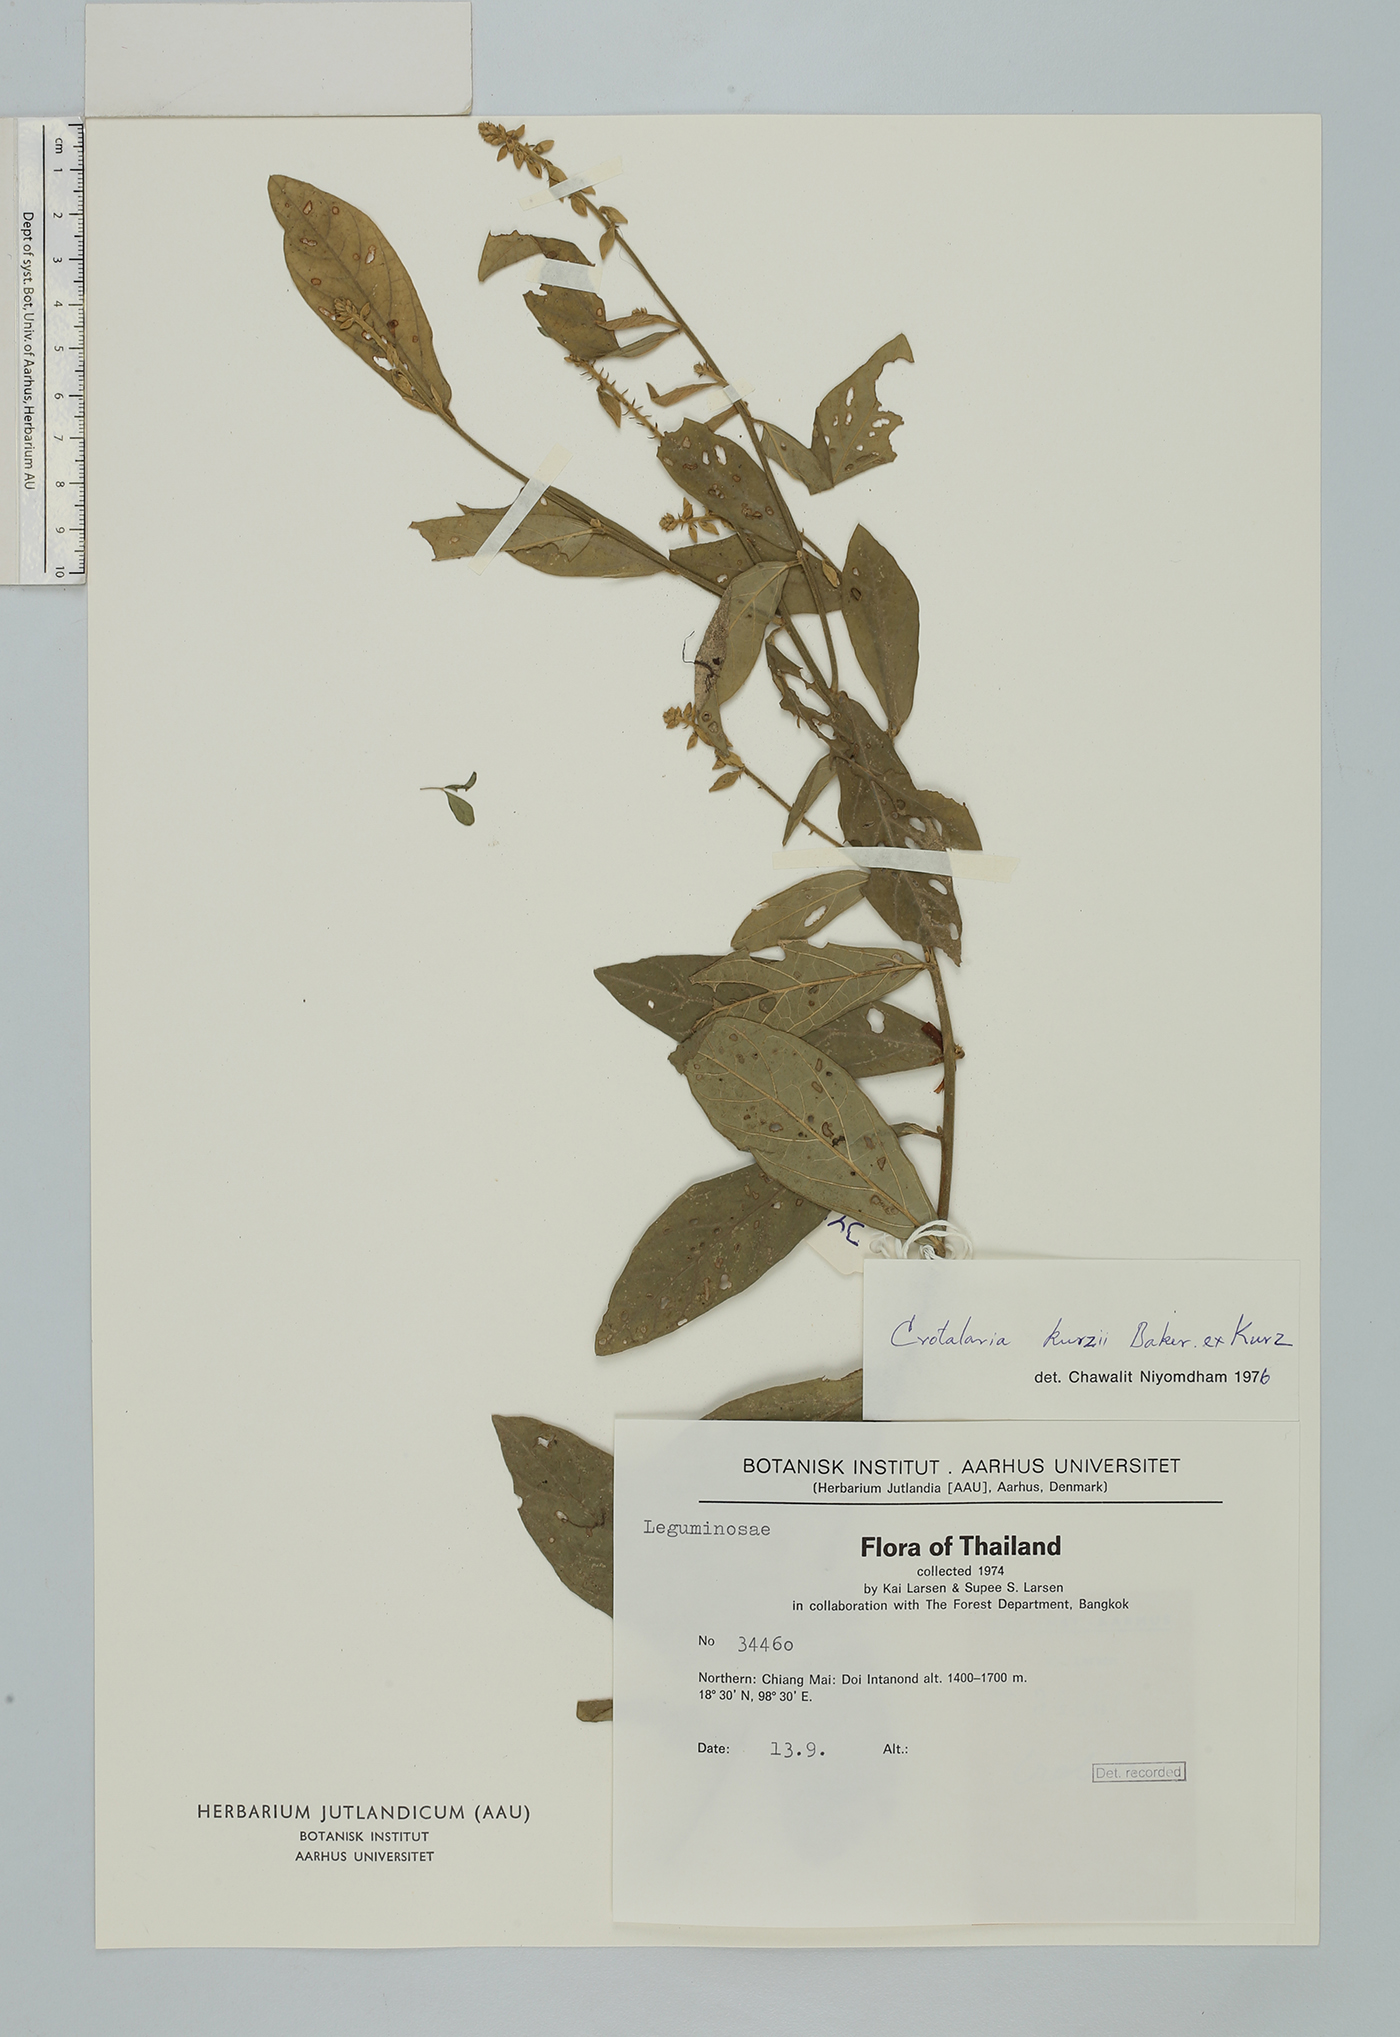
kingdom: Plantae
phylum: Tracheophyta
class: Magnoliopsida
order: Fabales
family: Fabaceae
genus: Crotalaria
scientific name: Crotalaria kurzii
